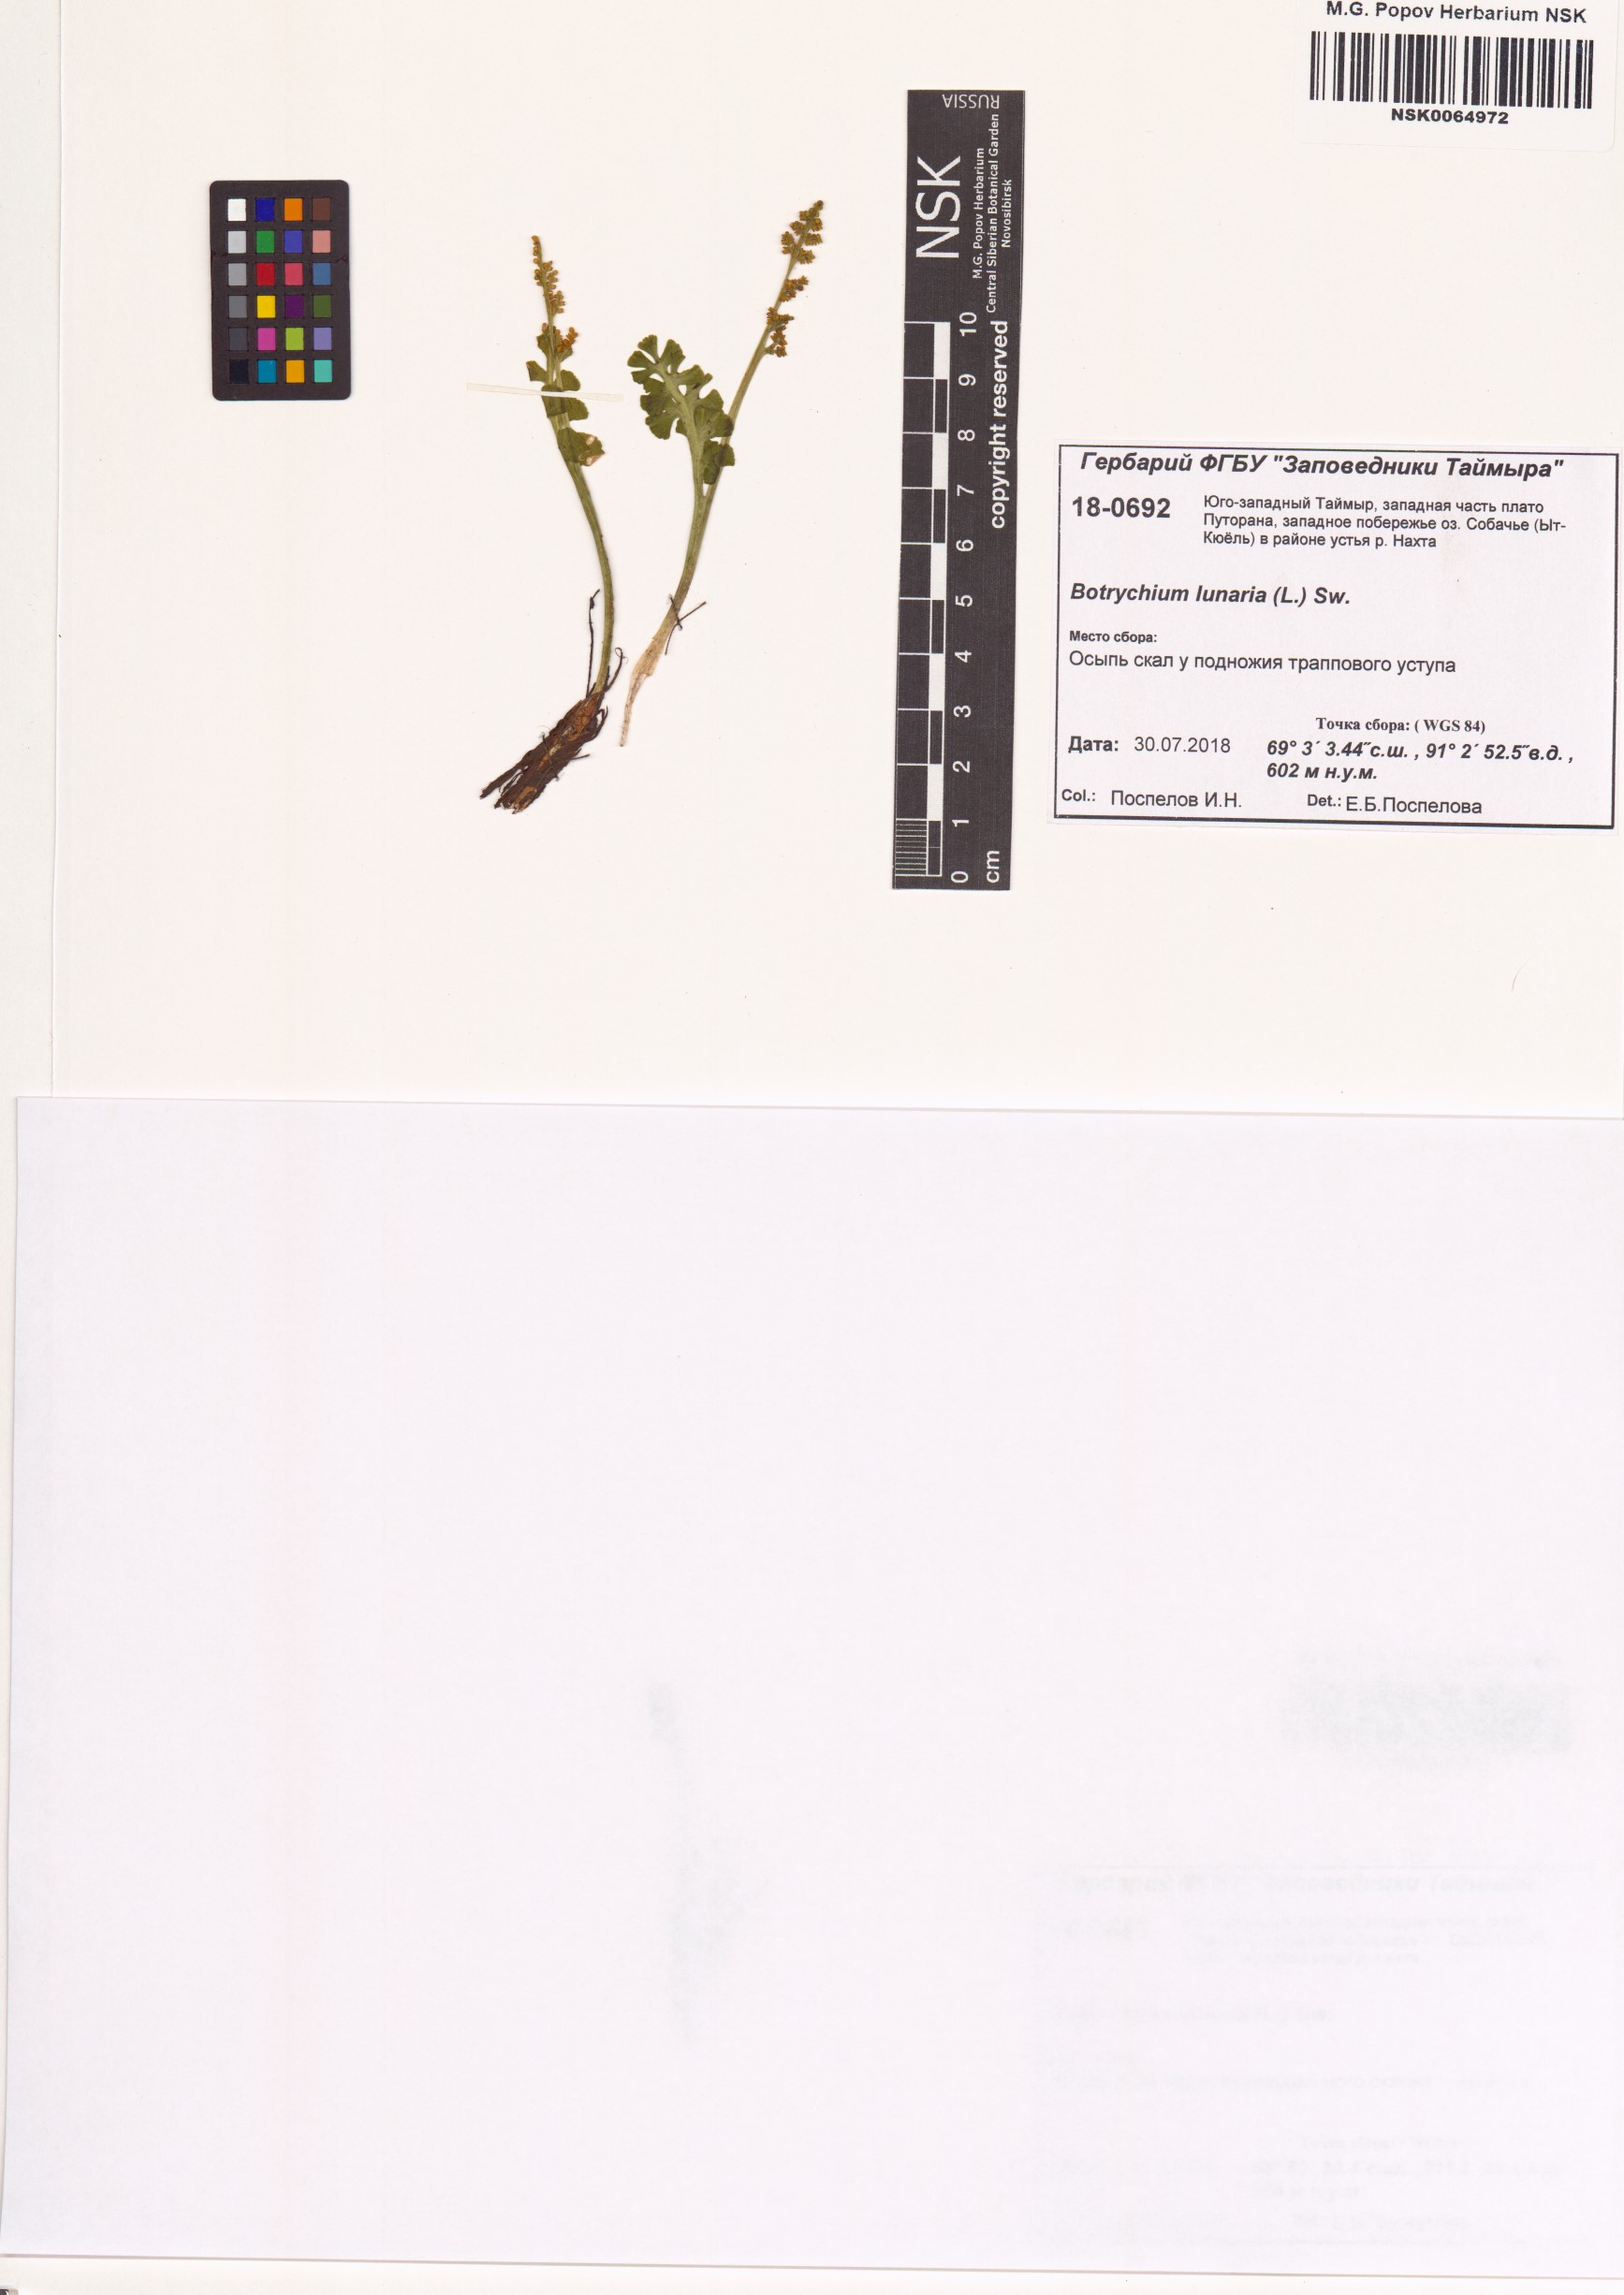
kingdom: Plantae
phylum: Tracheophyta
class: Polypodiopsida
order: Ophioglossales
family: Ophioglossaceae
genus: Botrychium
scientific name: Botrychium lunaria
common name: Moonwort
